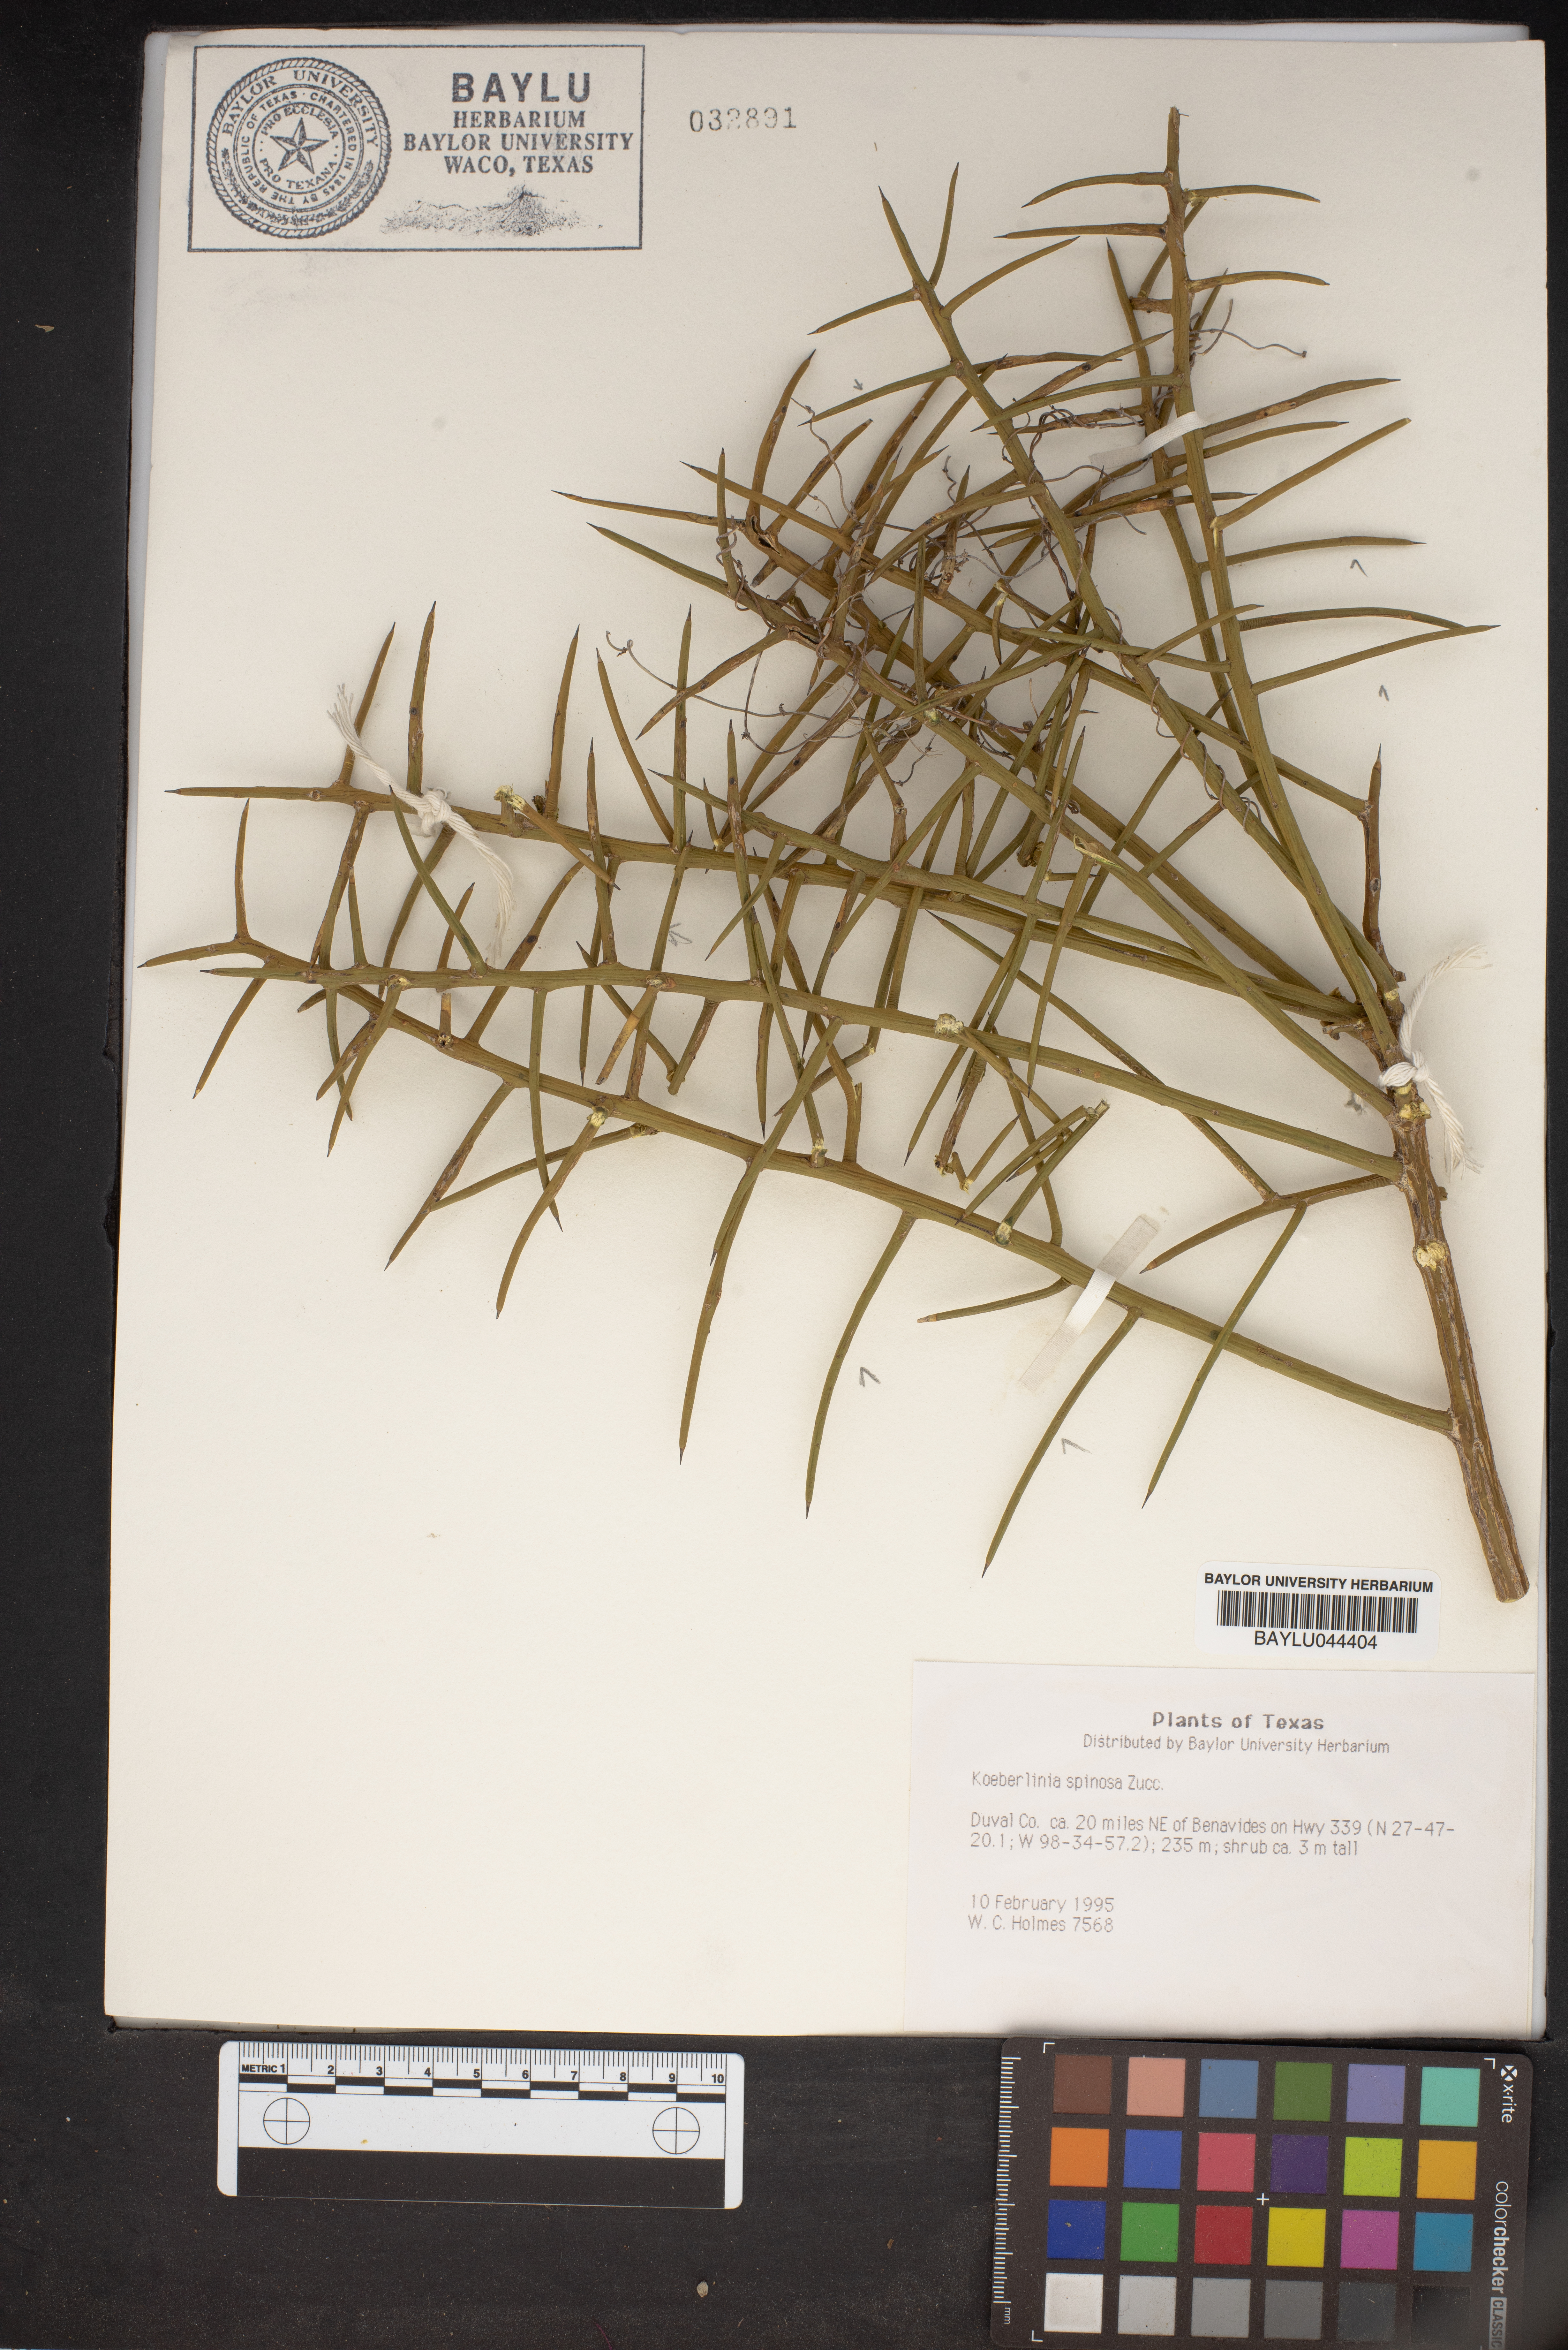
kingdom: Plantae
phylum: Tracheophyta
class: Magnoliopsida
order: Brassicales
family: Koeberliniaceae
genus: Koeberlinia
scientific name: Koeberlinia spinosa
